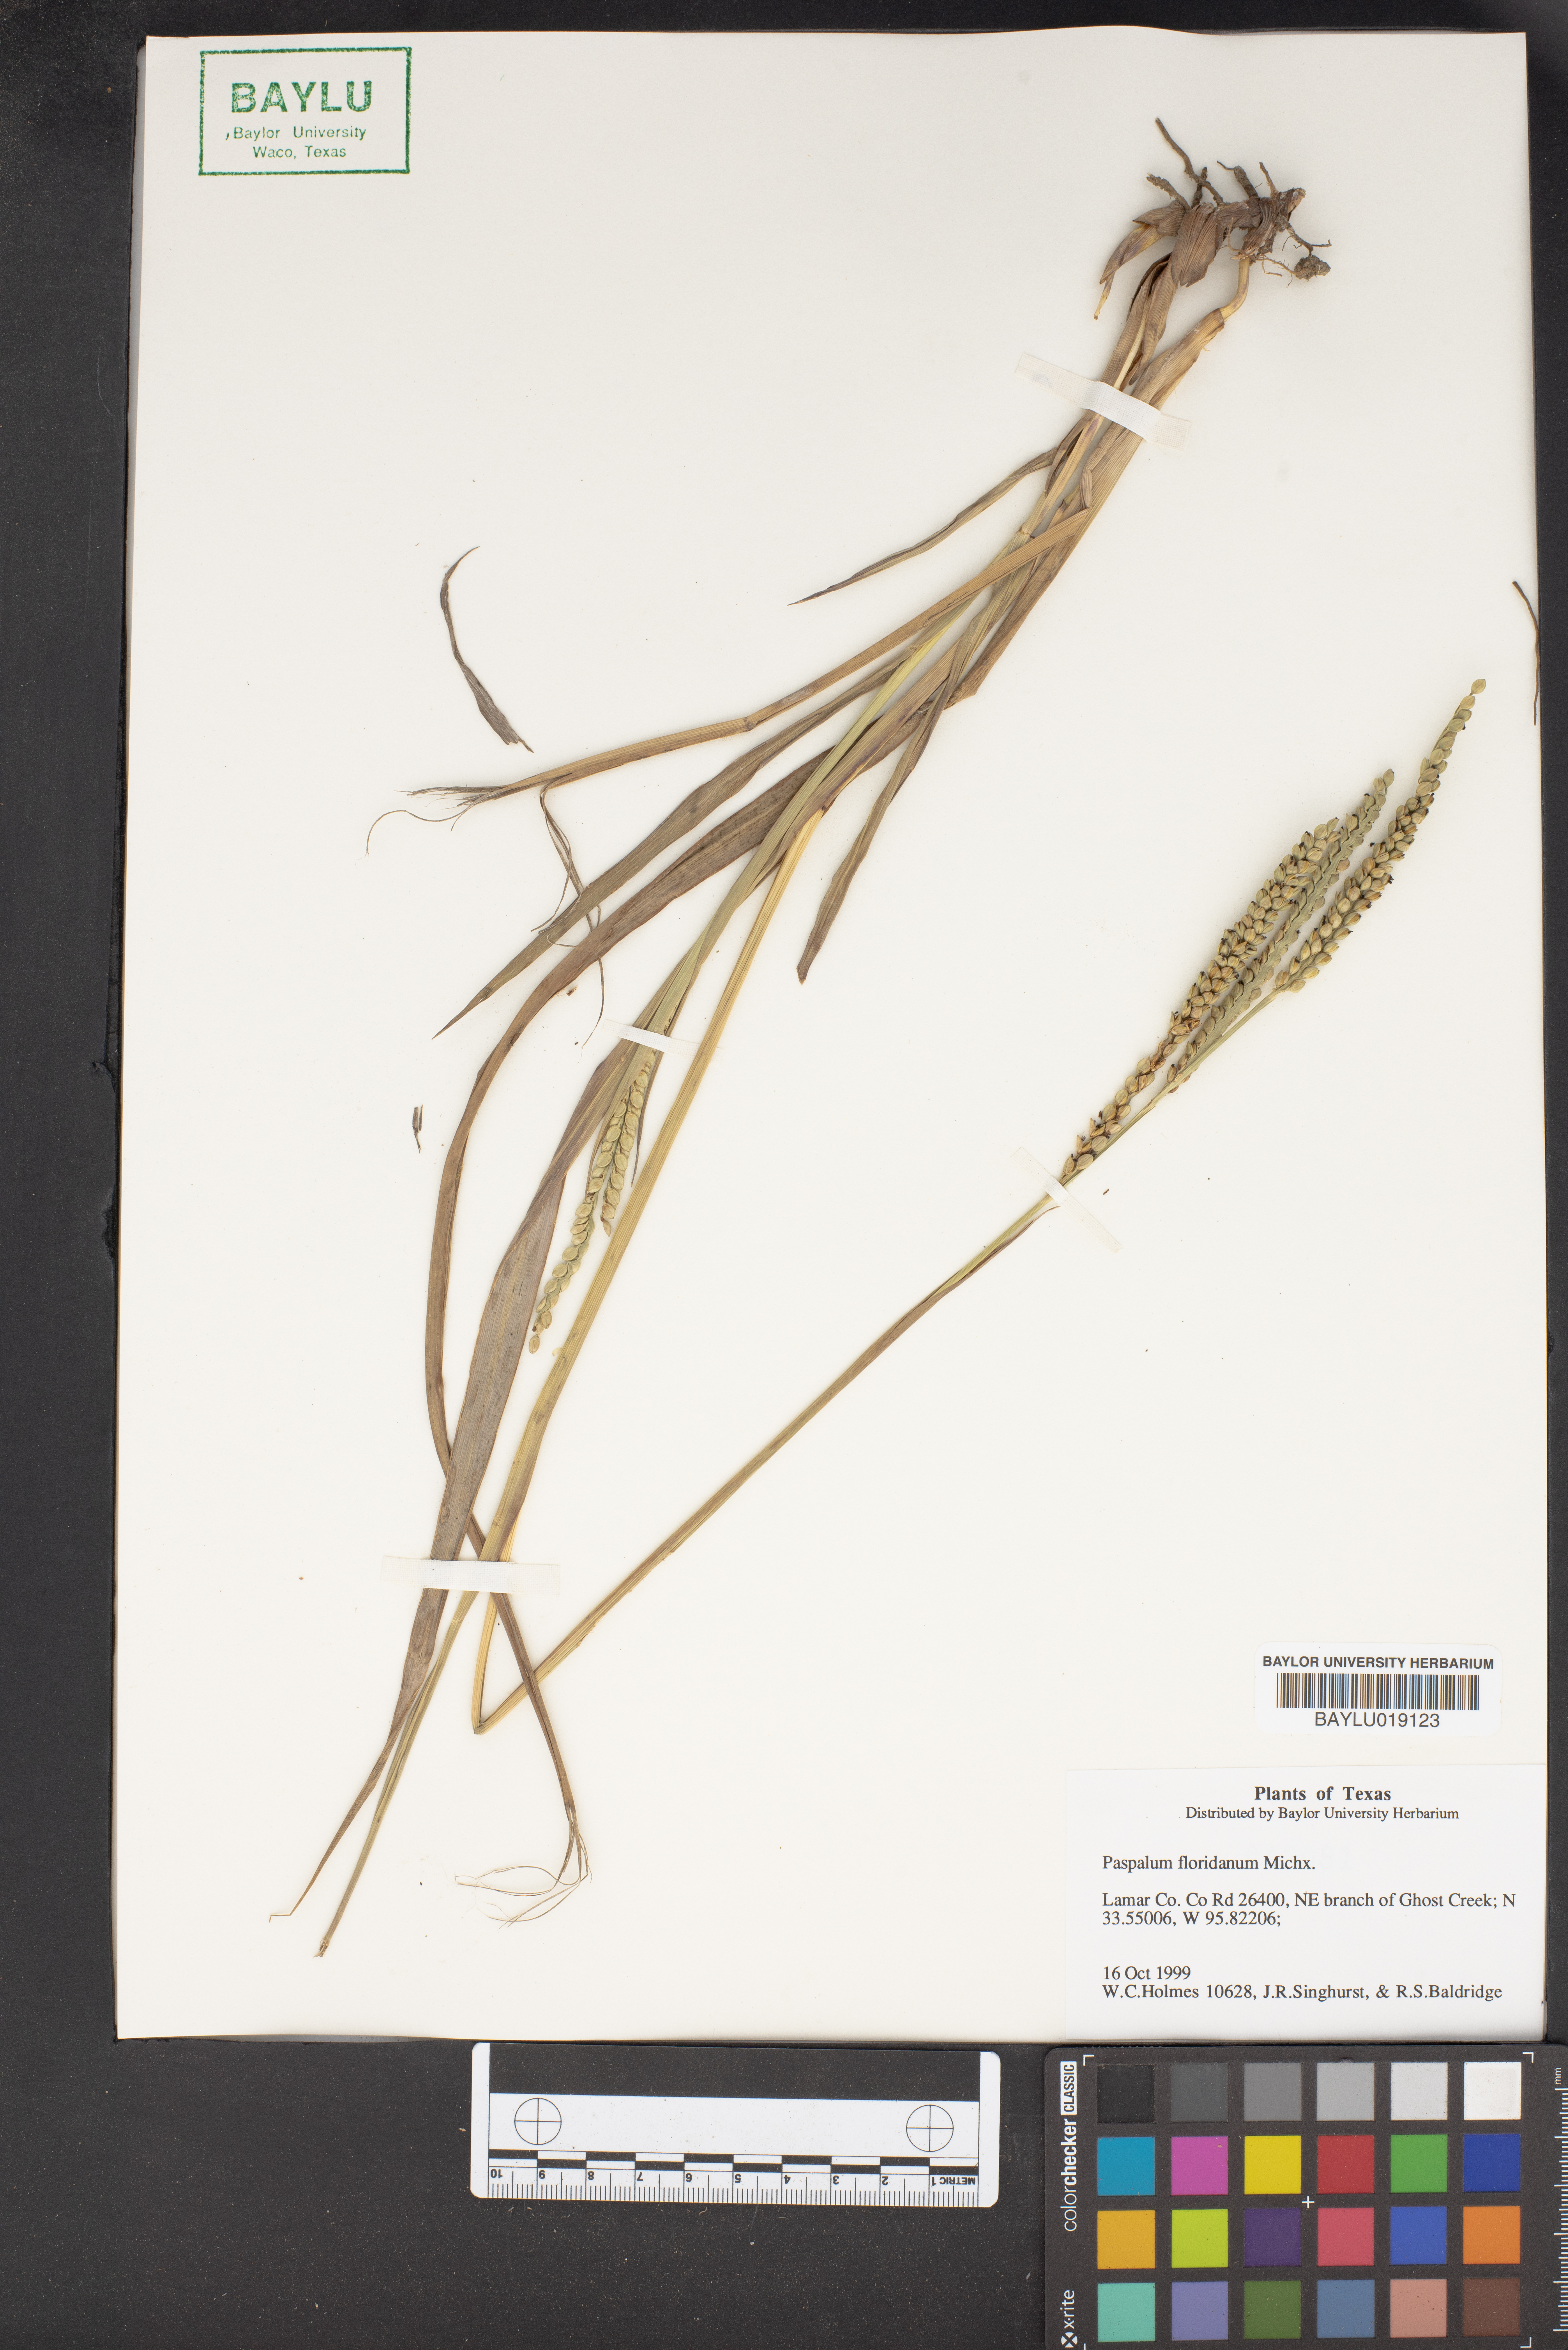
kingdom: Plantae
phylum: Tracheophyta
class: Liliopsida
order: Poales
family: Poaceae
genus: Paspalum
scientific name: Paspalum floridanum
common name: Florida paspalum
